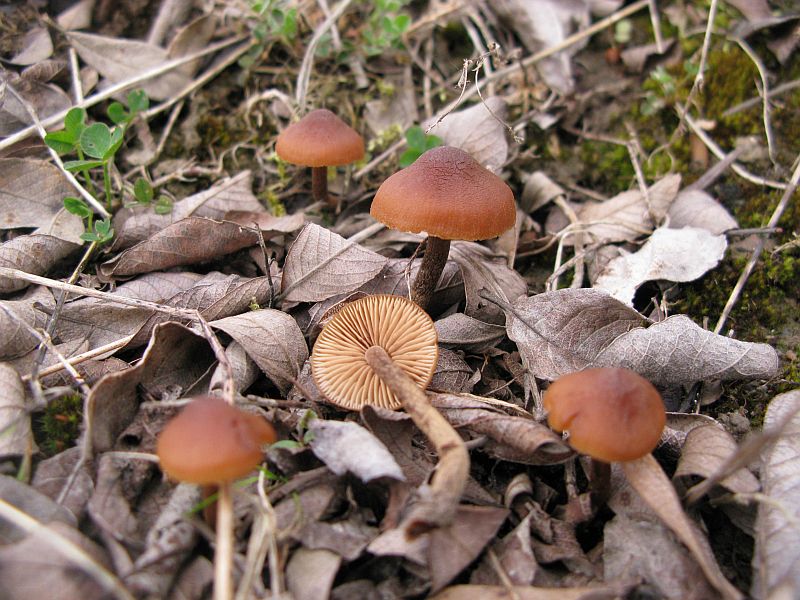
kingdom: Fungi
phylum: Basidiomycota
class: Agaricomycetes
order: Agaricales
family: Hymenogastraceae
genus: Naucoria
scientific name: Naucoria amarescens
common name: bitter knaphat
